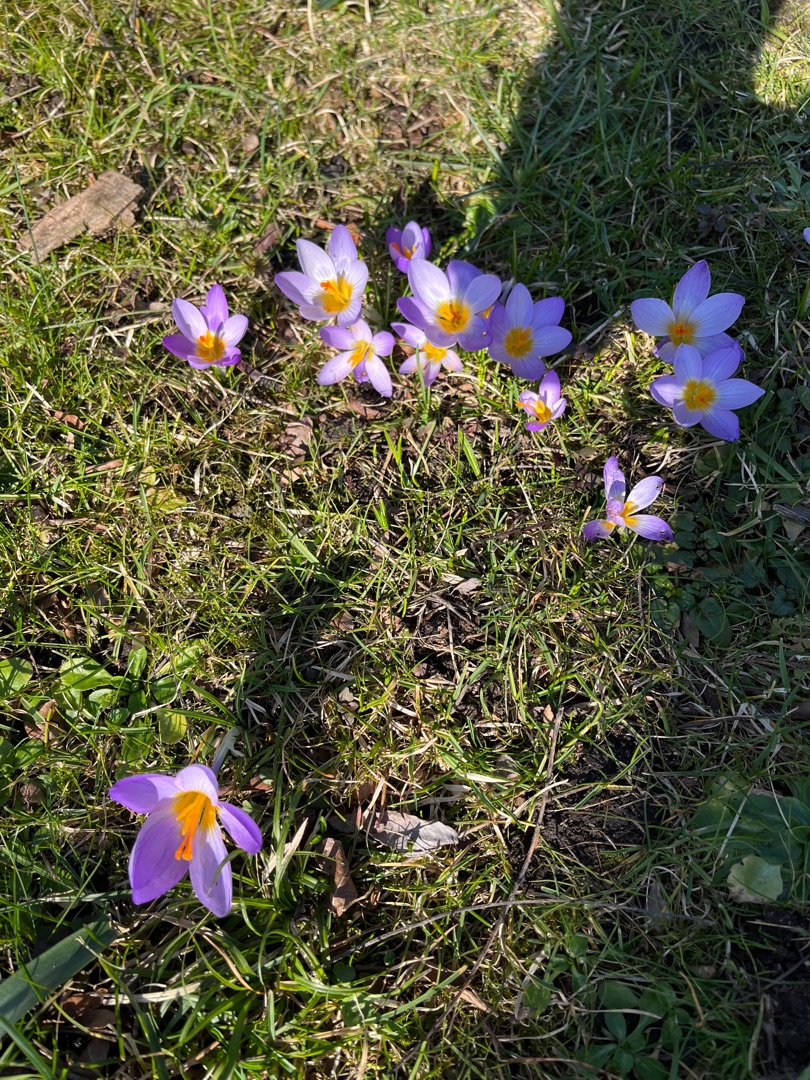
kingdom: Plantae
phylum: Tracheophyta
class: Liliopsida
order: Asparagales
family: Iridaceae
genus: Crocus
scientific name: Crocus sieberi
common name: Græsk krokus
